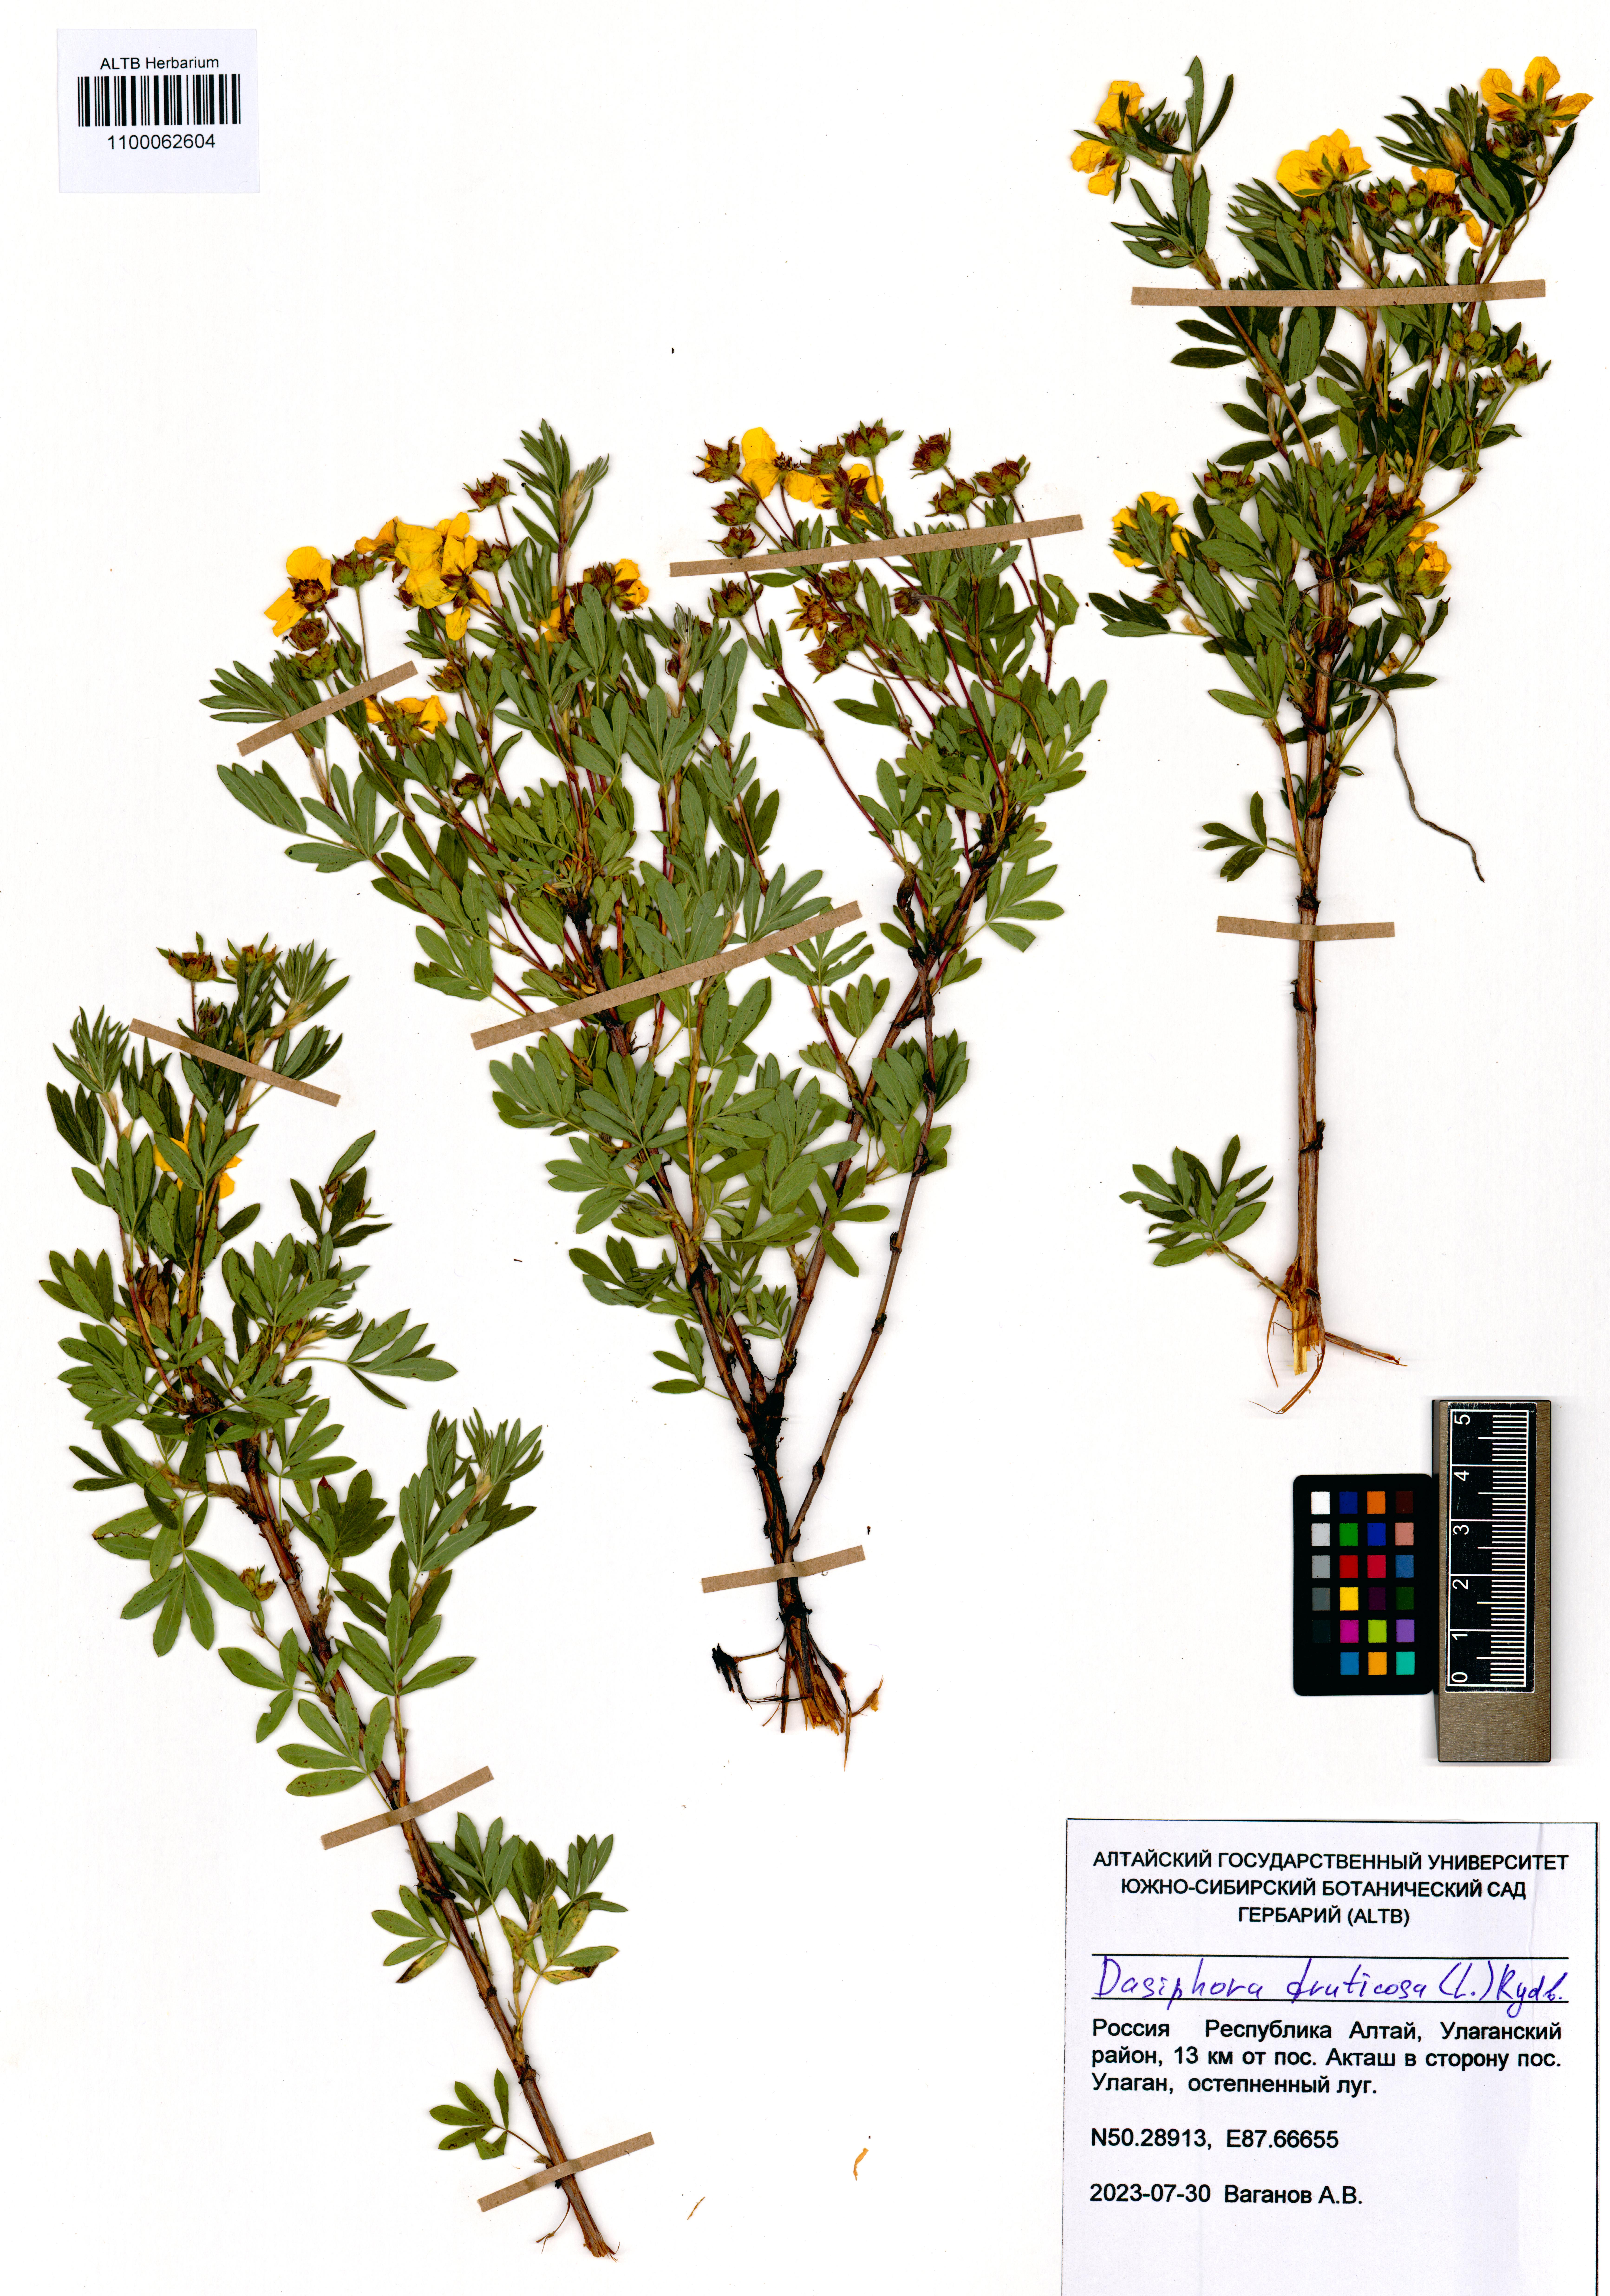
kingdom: Plantae
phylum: Tracheophyta
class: Magnoliopsida
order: Rosales
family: Rosaceae
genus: Dasiphora
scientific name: Dasiphora fruticosa
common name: Shrubby cinquefoil
